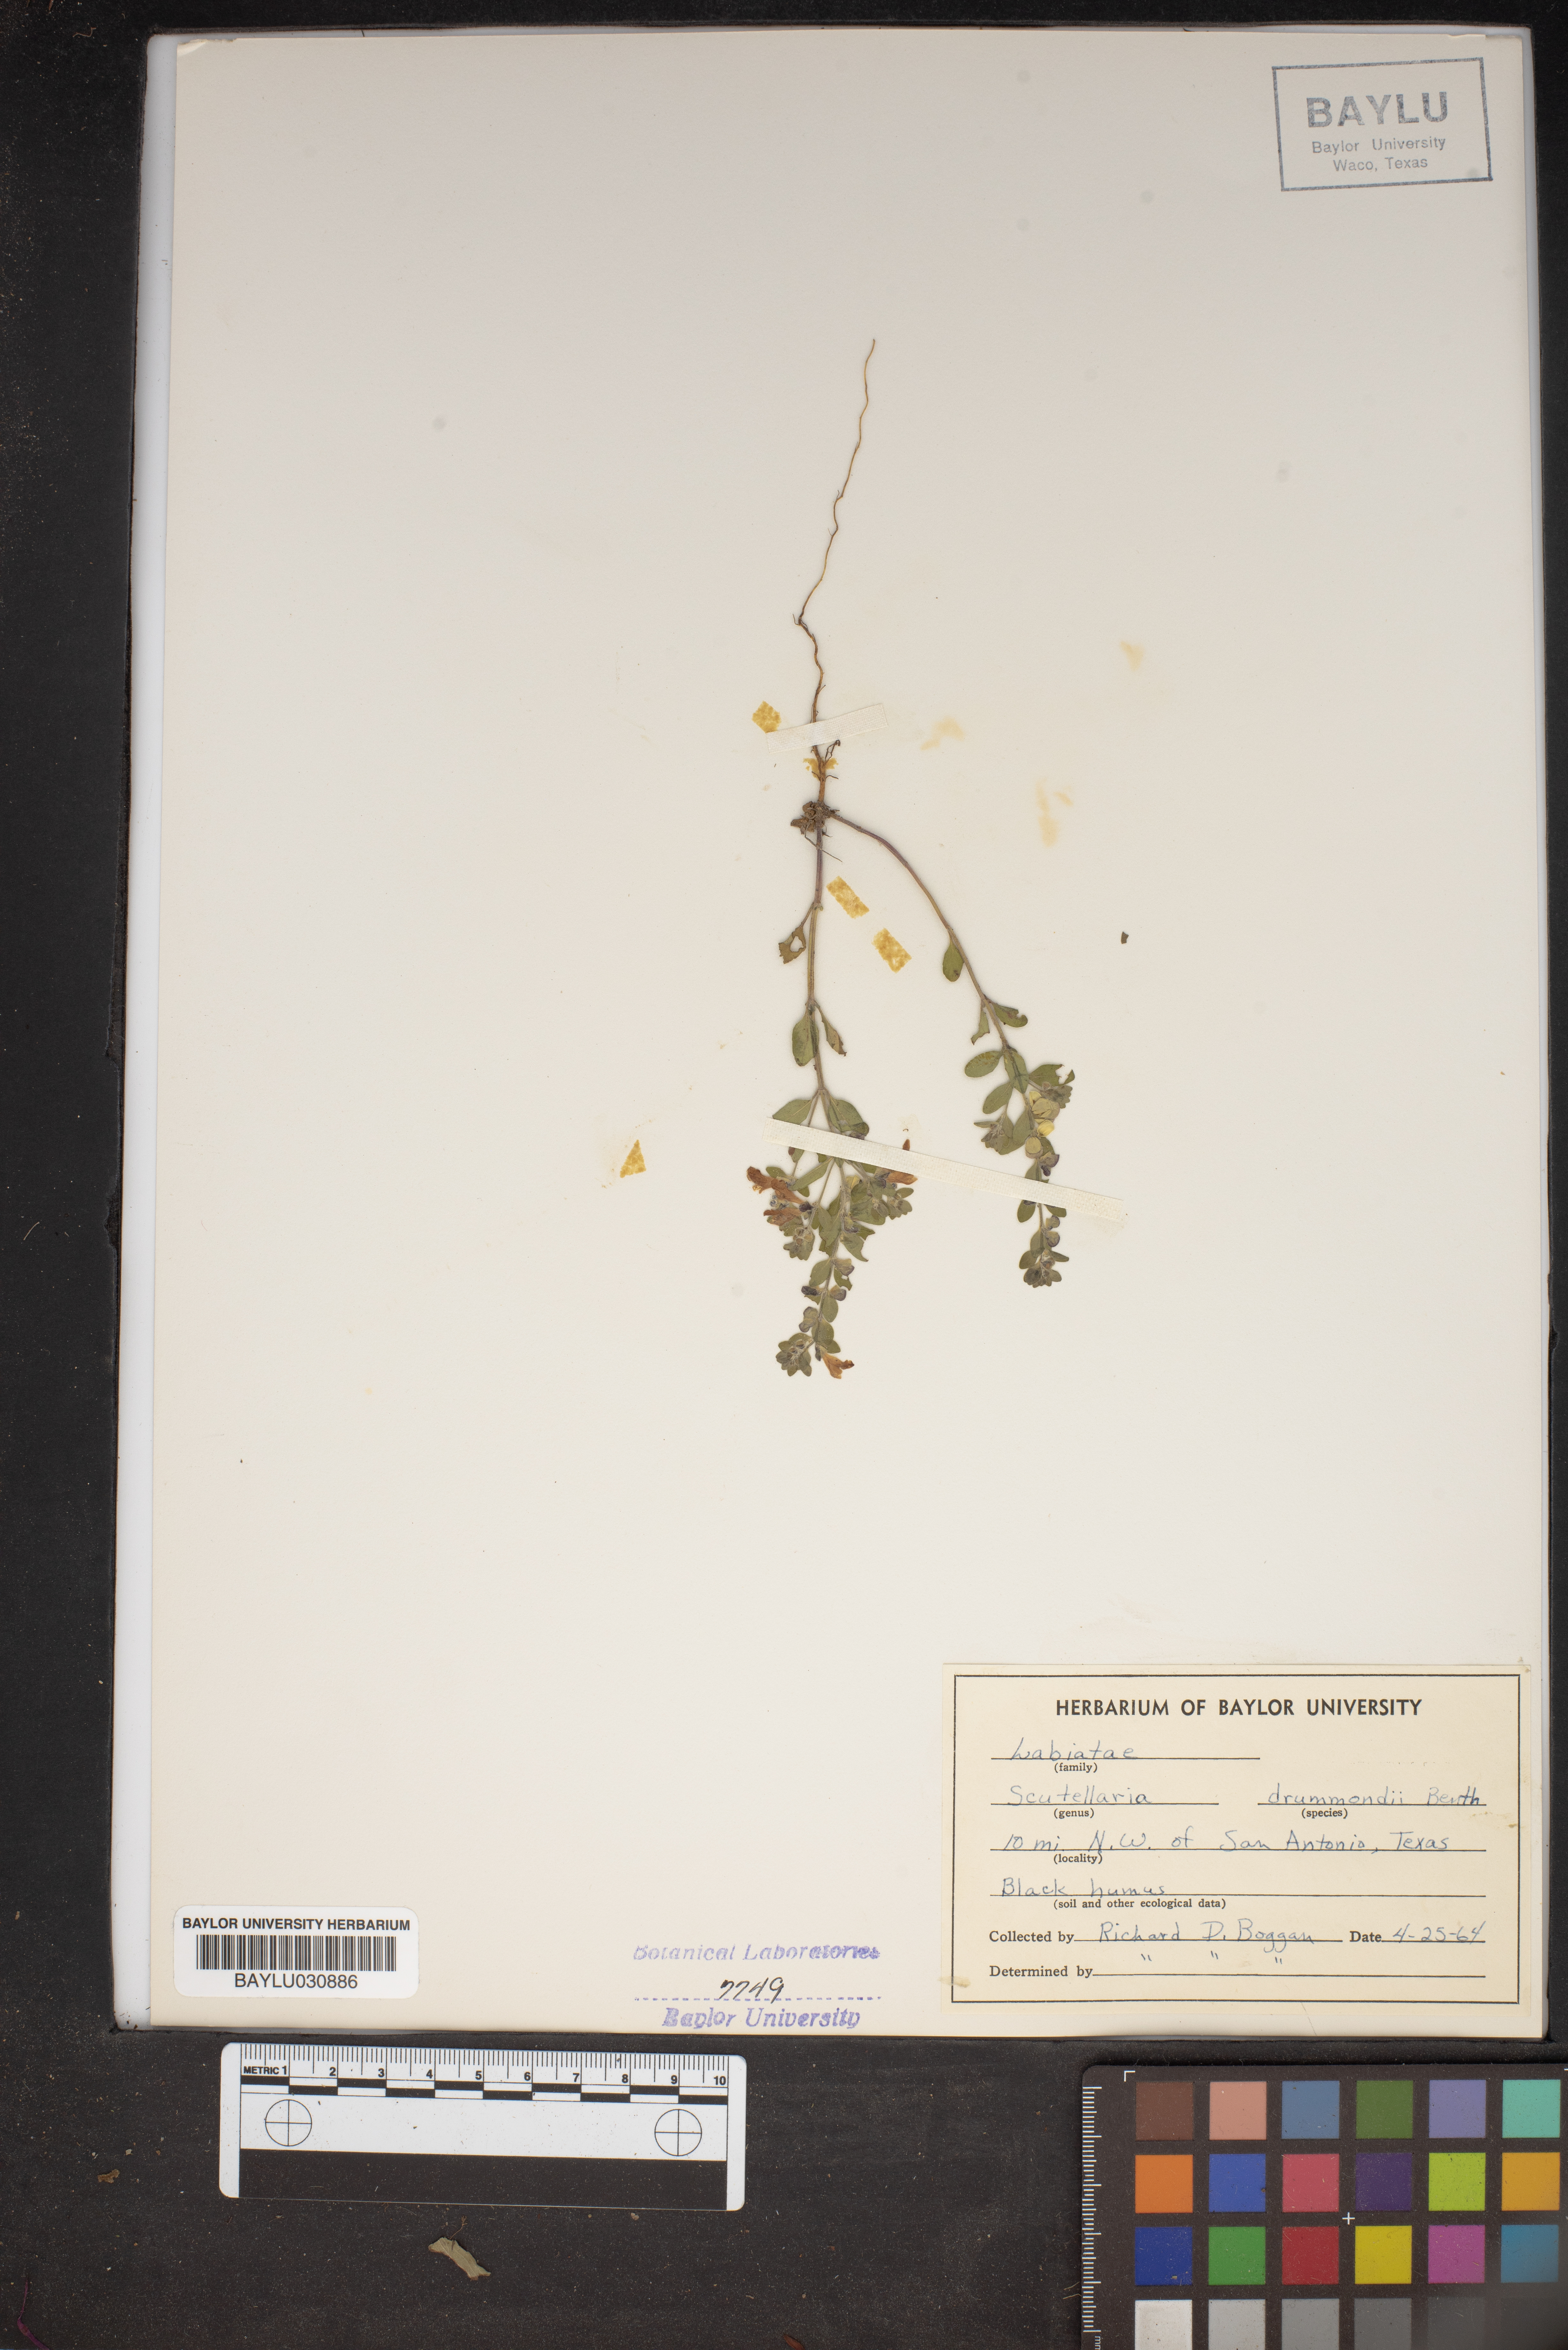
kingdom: Plantae
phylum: Tracheophyta
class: Magnoliopsida
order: Lamiales
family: Lamiaceae
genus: Scutellaria
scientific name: Scutellaria drummondii
